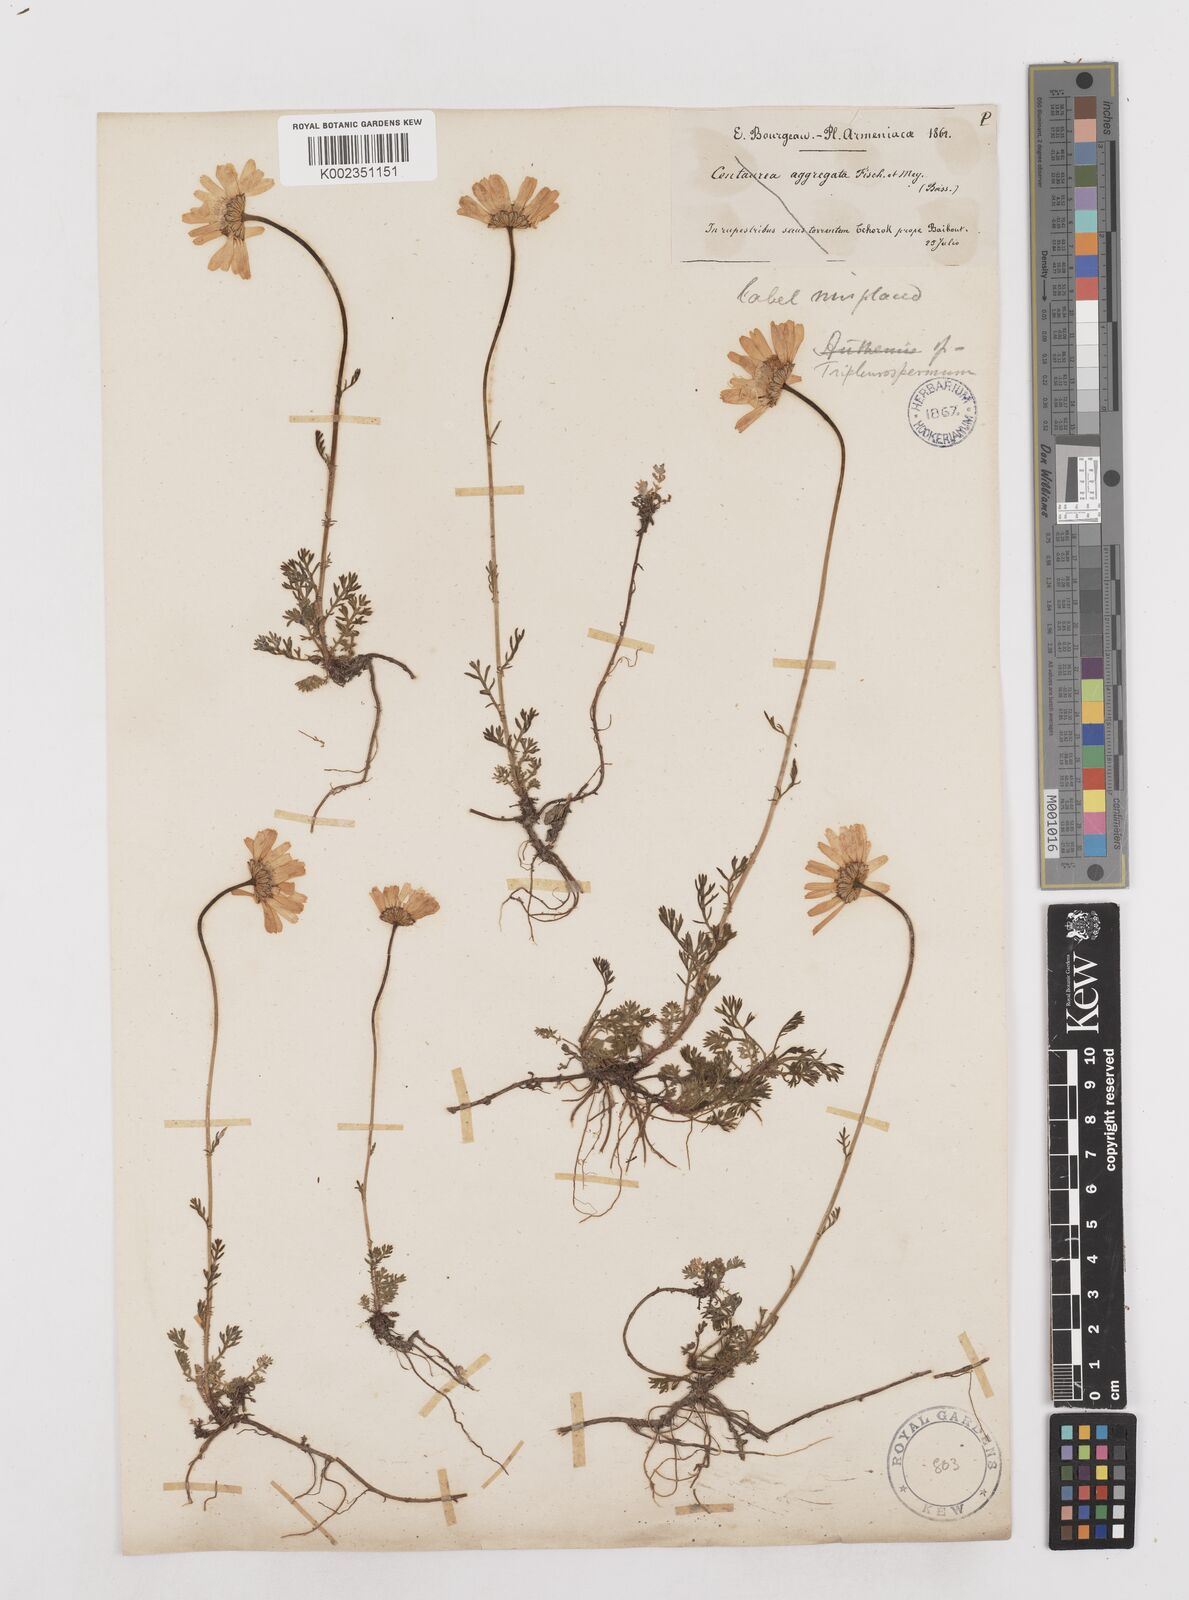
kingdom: Plantae
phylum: Tracheophyta
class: Magnoliopsida
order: Asterales
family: Asteraceae
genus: Anthemis
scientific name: Anthemis cretica
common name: Mountain dog-daisy
